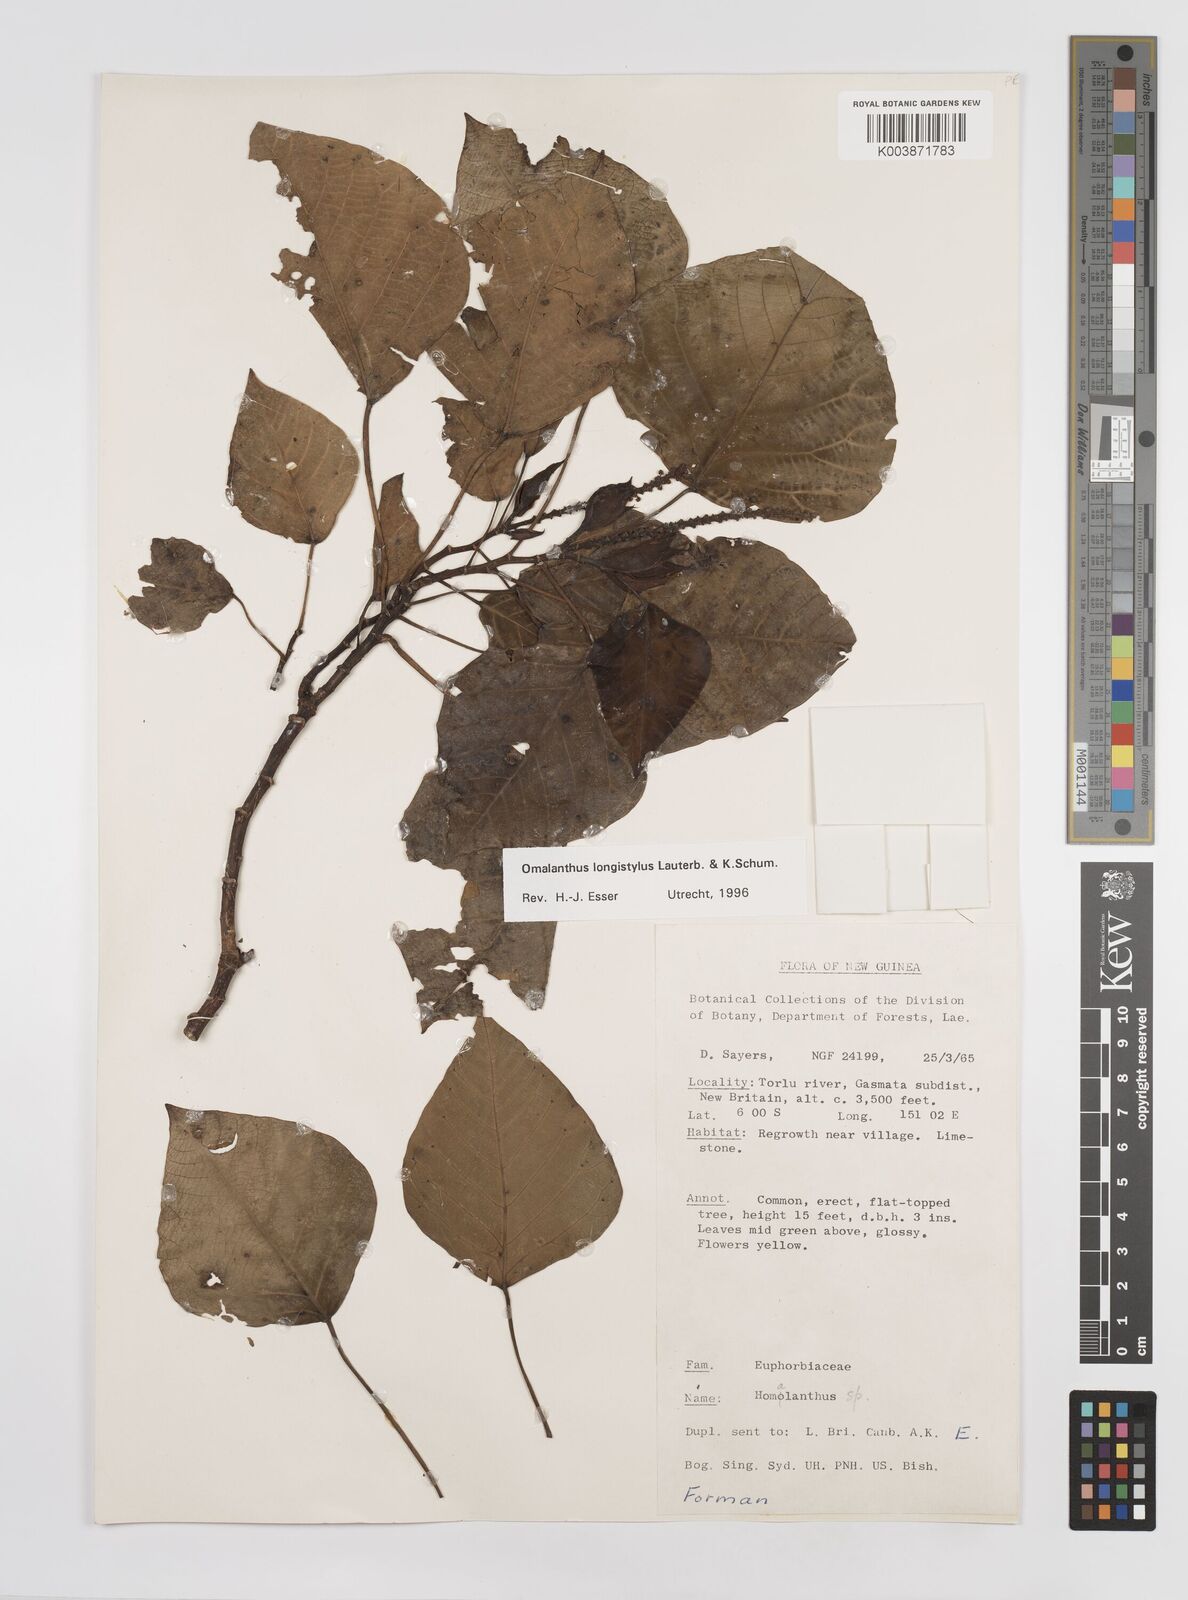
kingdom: Plantae
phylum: Tracheophyta
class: Magnoliopsida
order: Malpighiales
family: Euphorbiaceae
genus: Homalanthus
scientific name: Homalanthus longistylus
